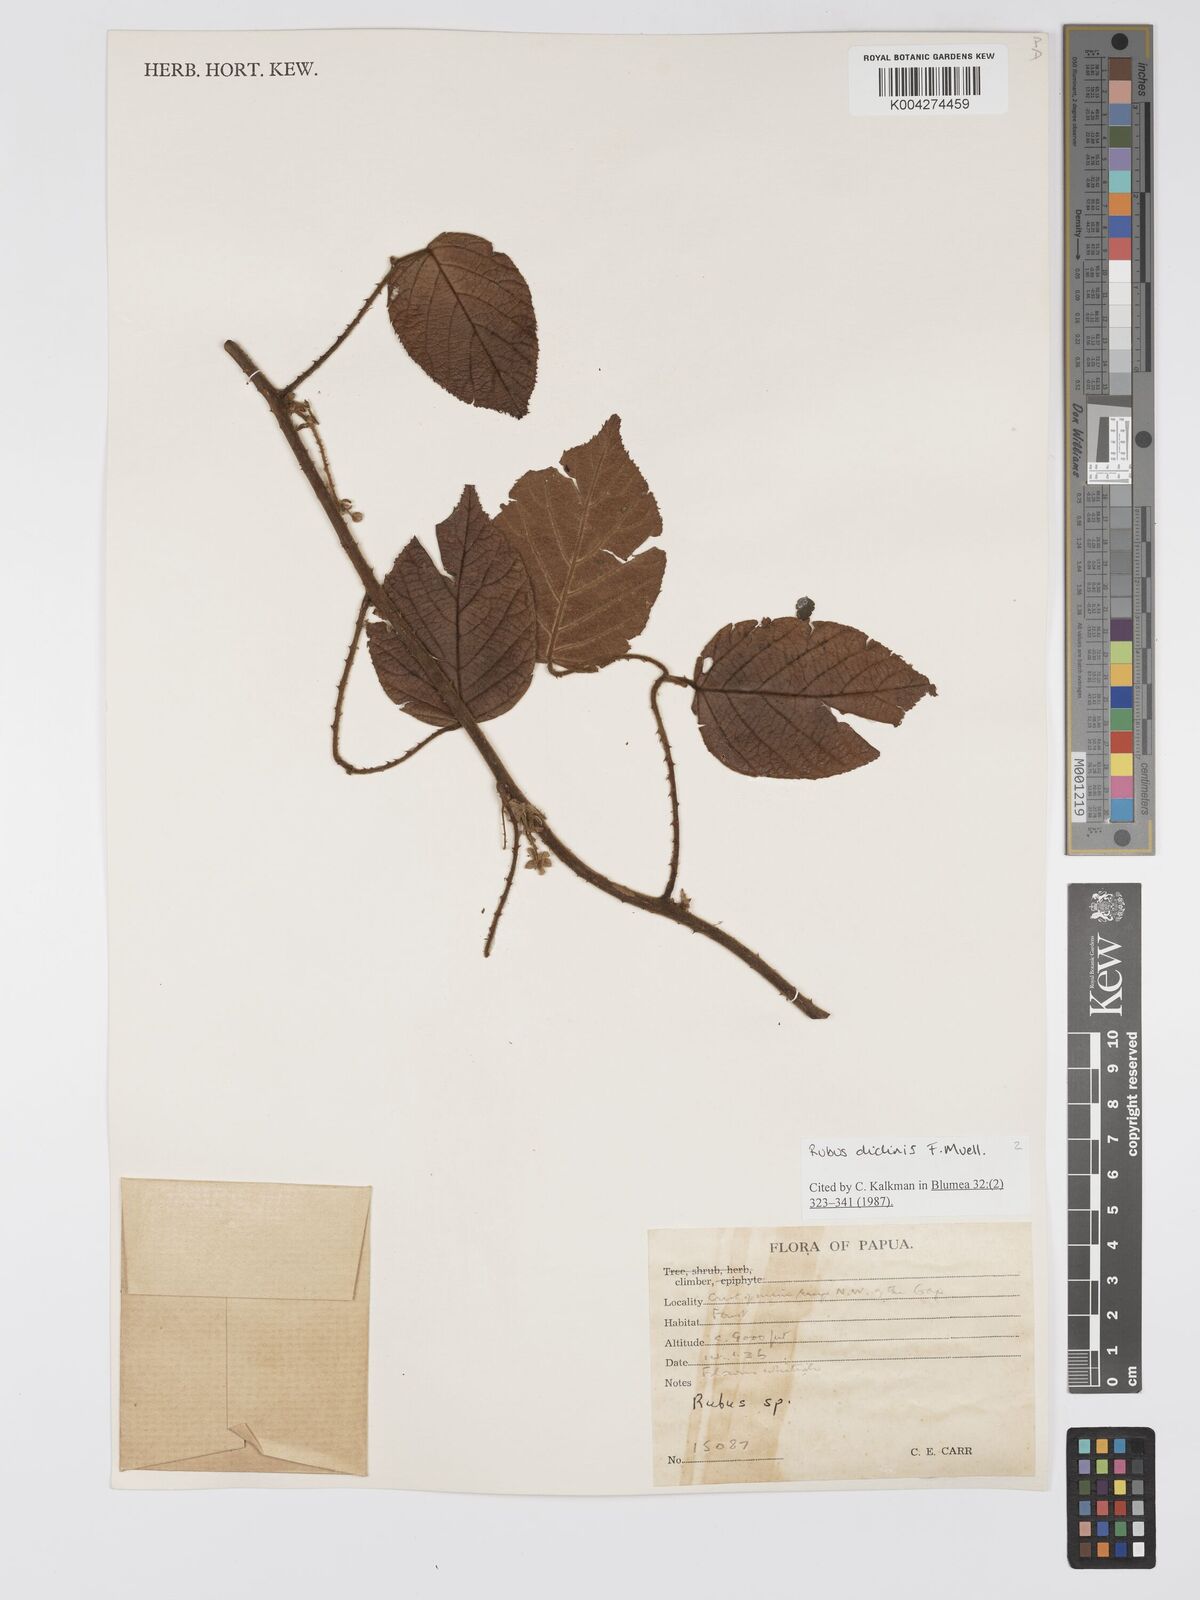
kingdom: Plantae
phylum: Tracheophyta
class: Magnoliopsida
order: Rosales
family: Rosaceae
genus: Rubus
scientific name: Rubus diclinis
